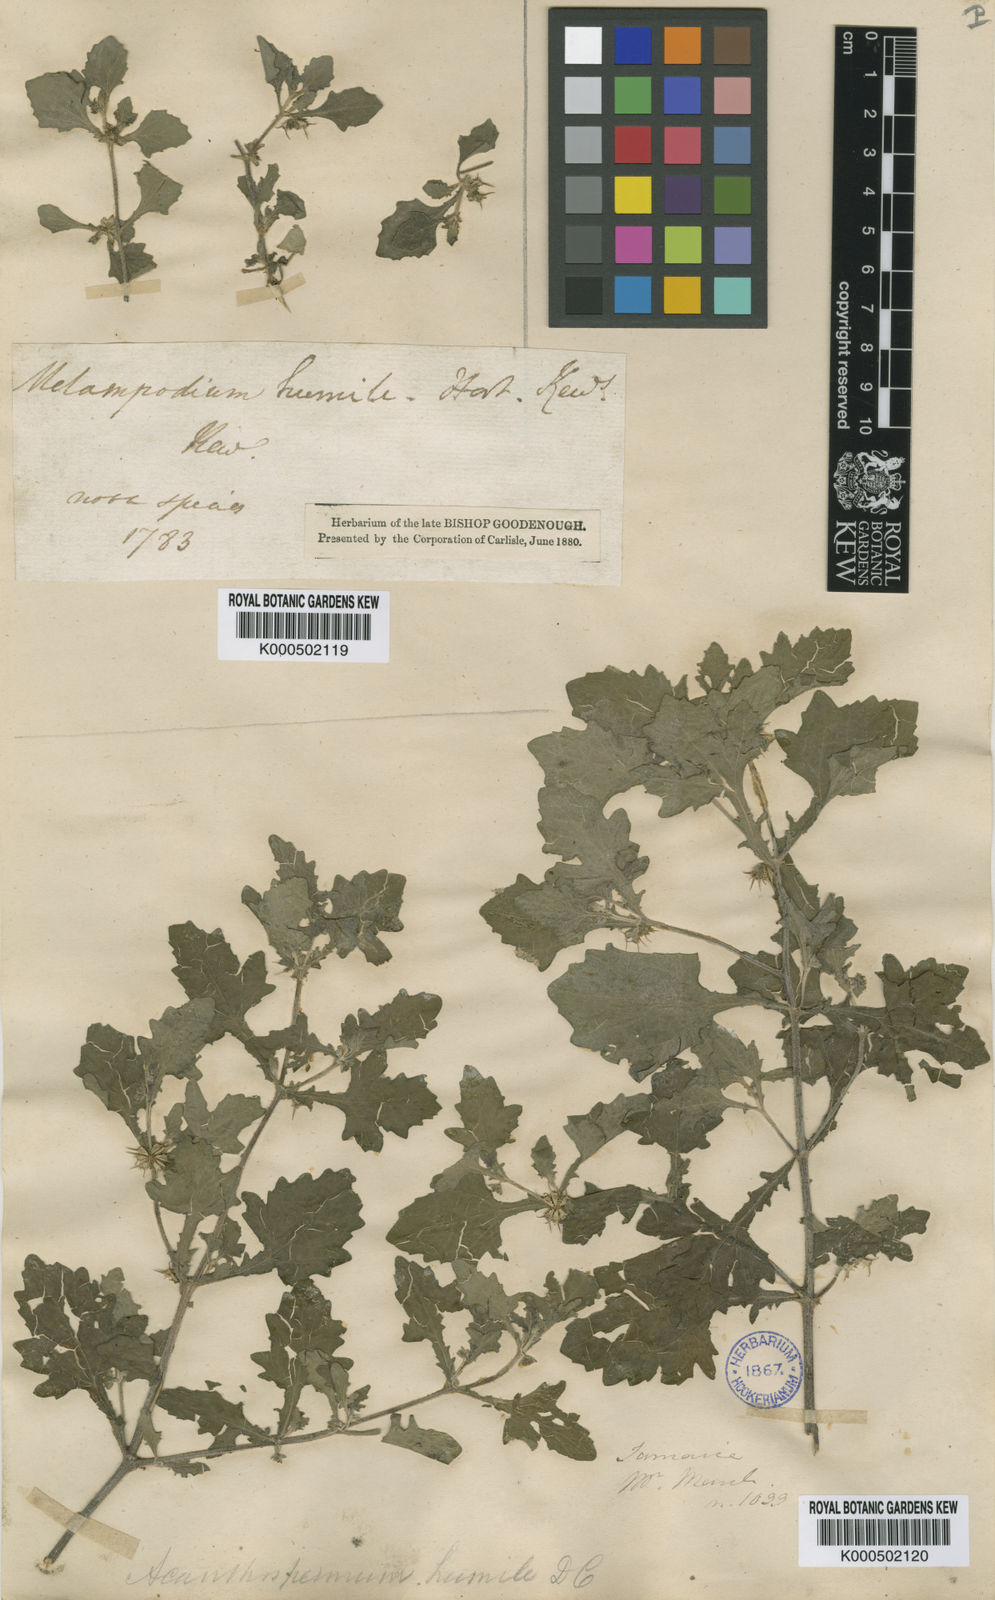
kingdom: Plantae
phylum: Tracheophyta
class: Magnoliopsida
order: Asterales
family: Asteraceae
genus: Acanthospermum
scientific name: Acanthospermum humile
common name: Low starbur
